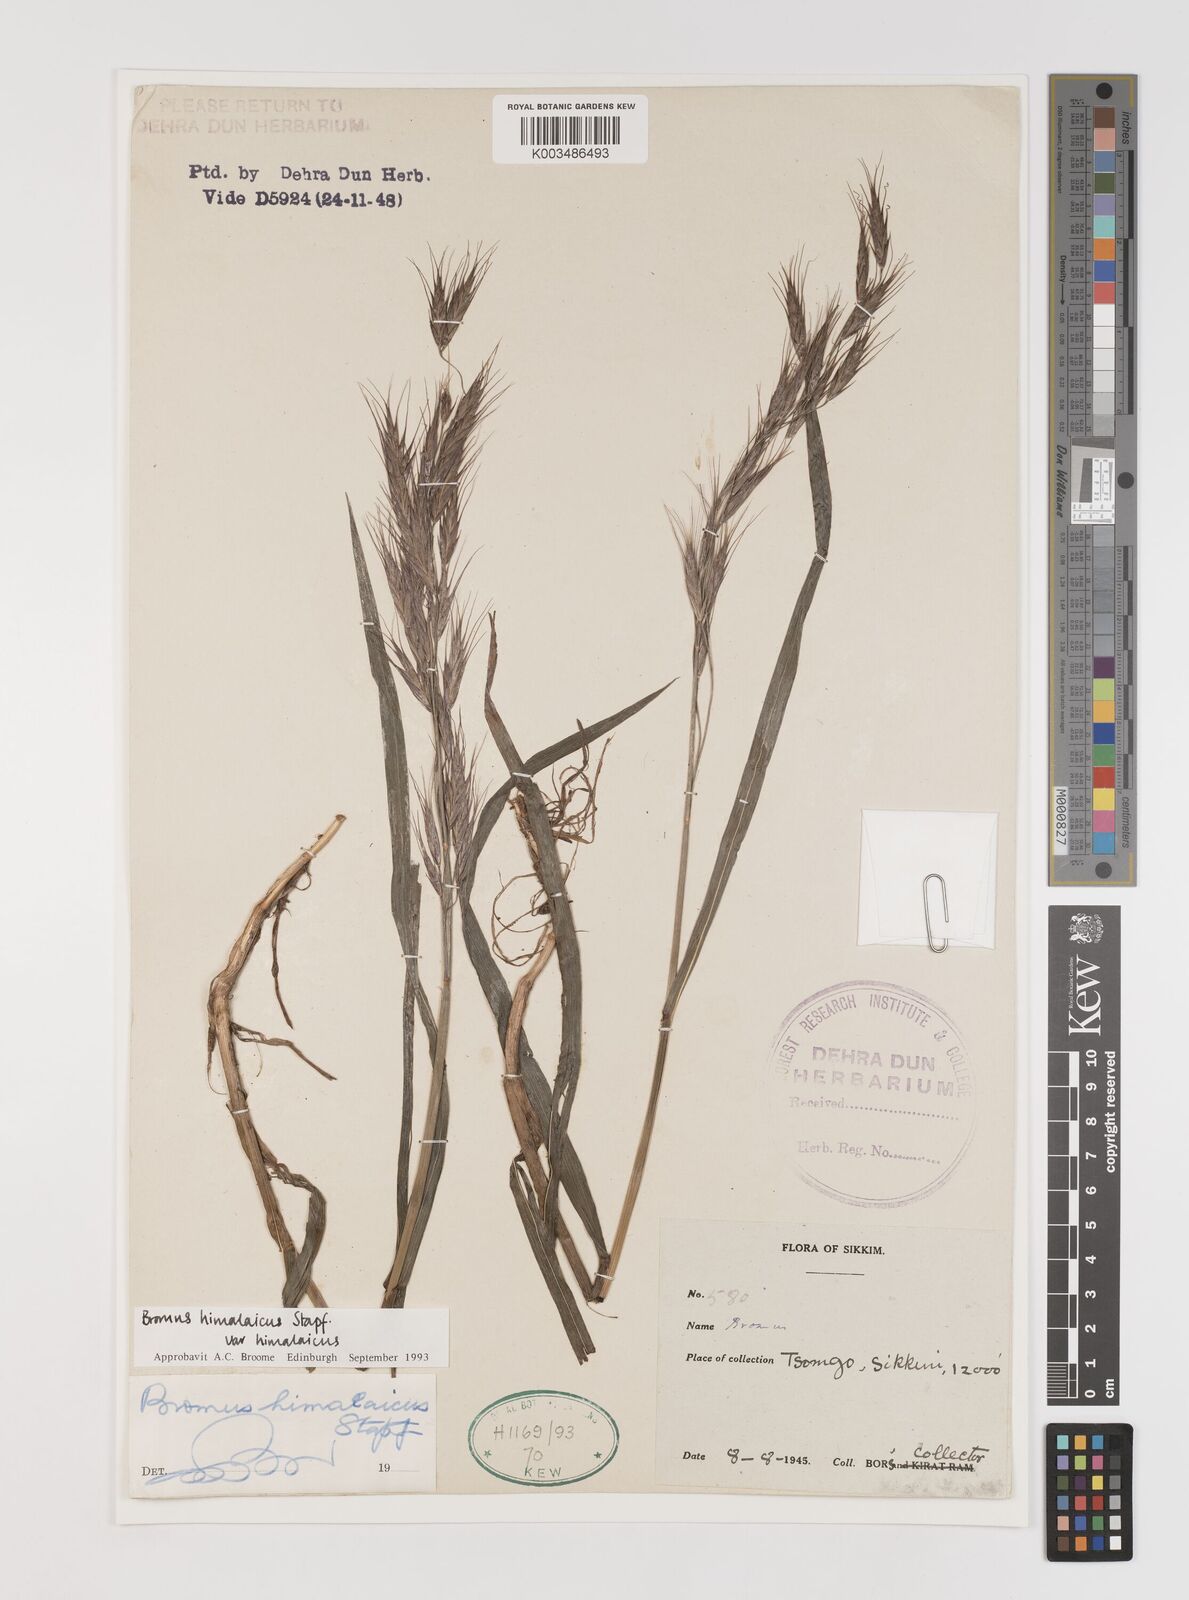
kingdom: Plantae
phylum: Tracheophyta
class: Liliopsida
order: Poales
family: Poaceae
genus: Bromus
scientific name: Bromus himalaicus
